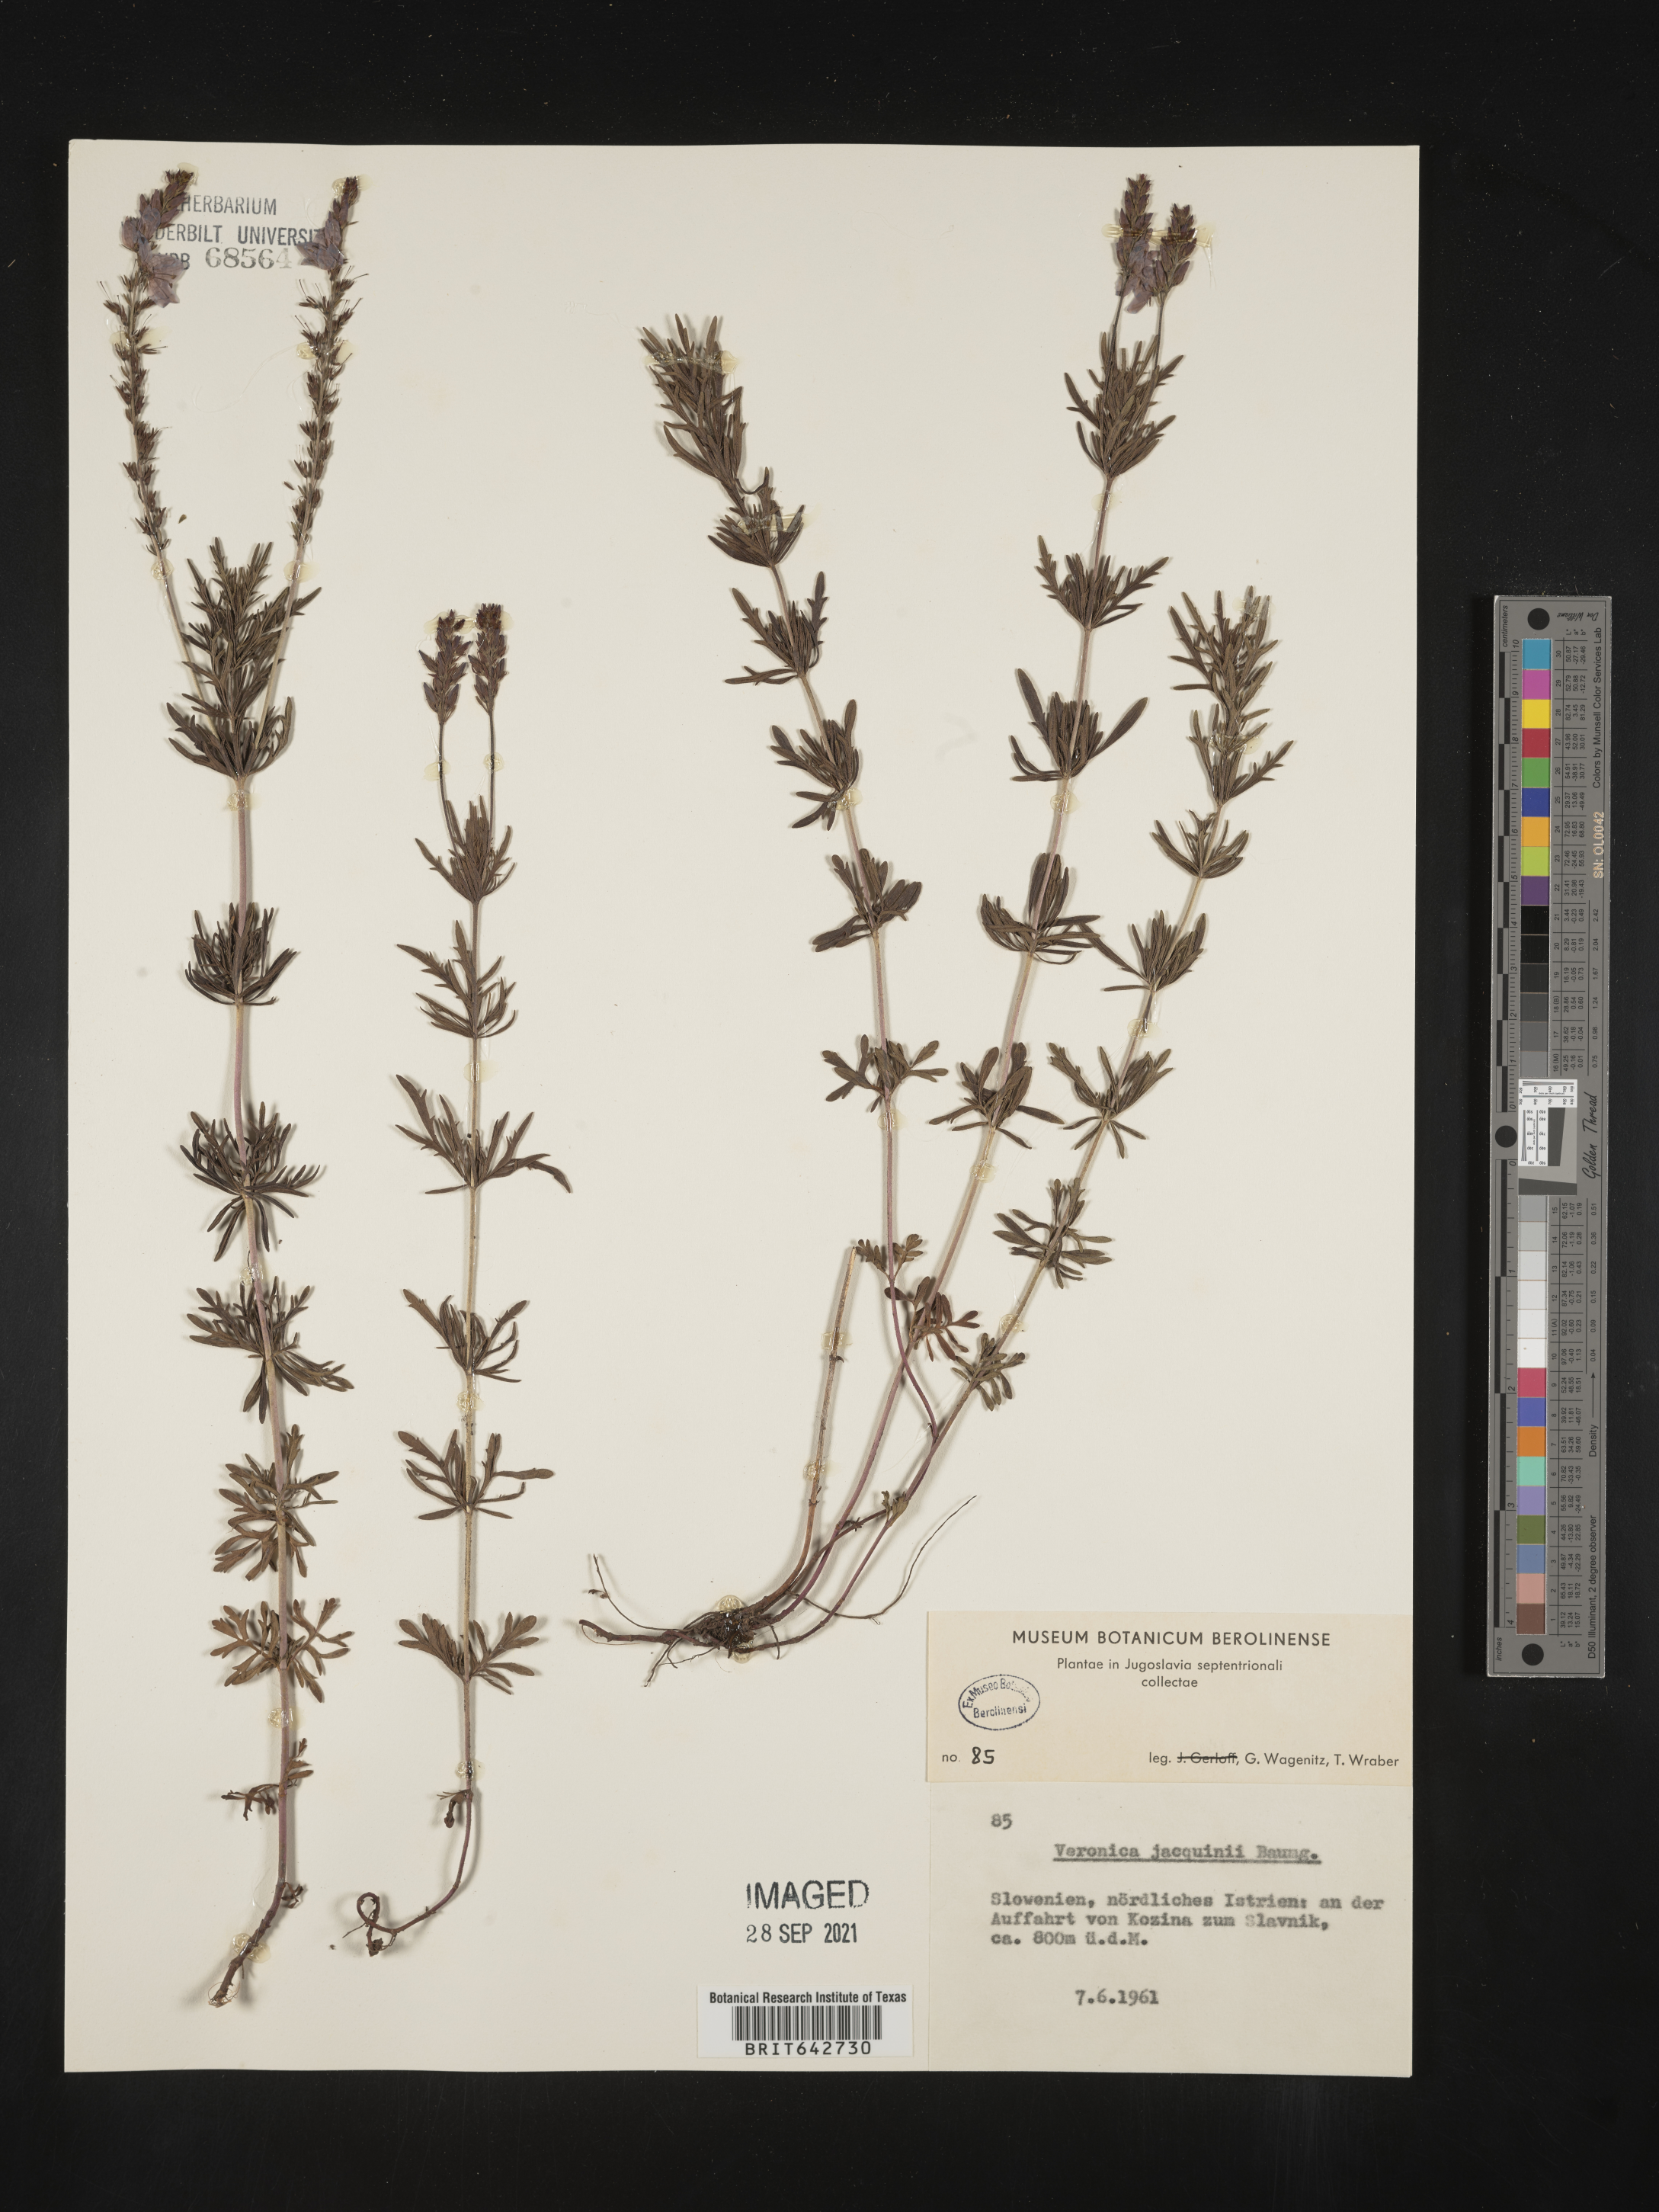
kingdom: Plantae
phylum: Tracheophyta
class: Magnoliopsida
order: Lamiales
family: Plantaginaceae
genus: Veronica
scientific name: Veronica
